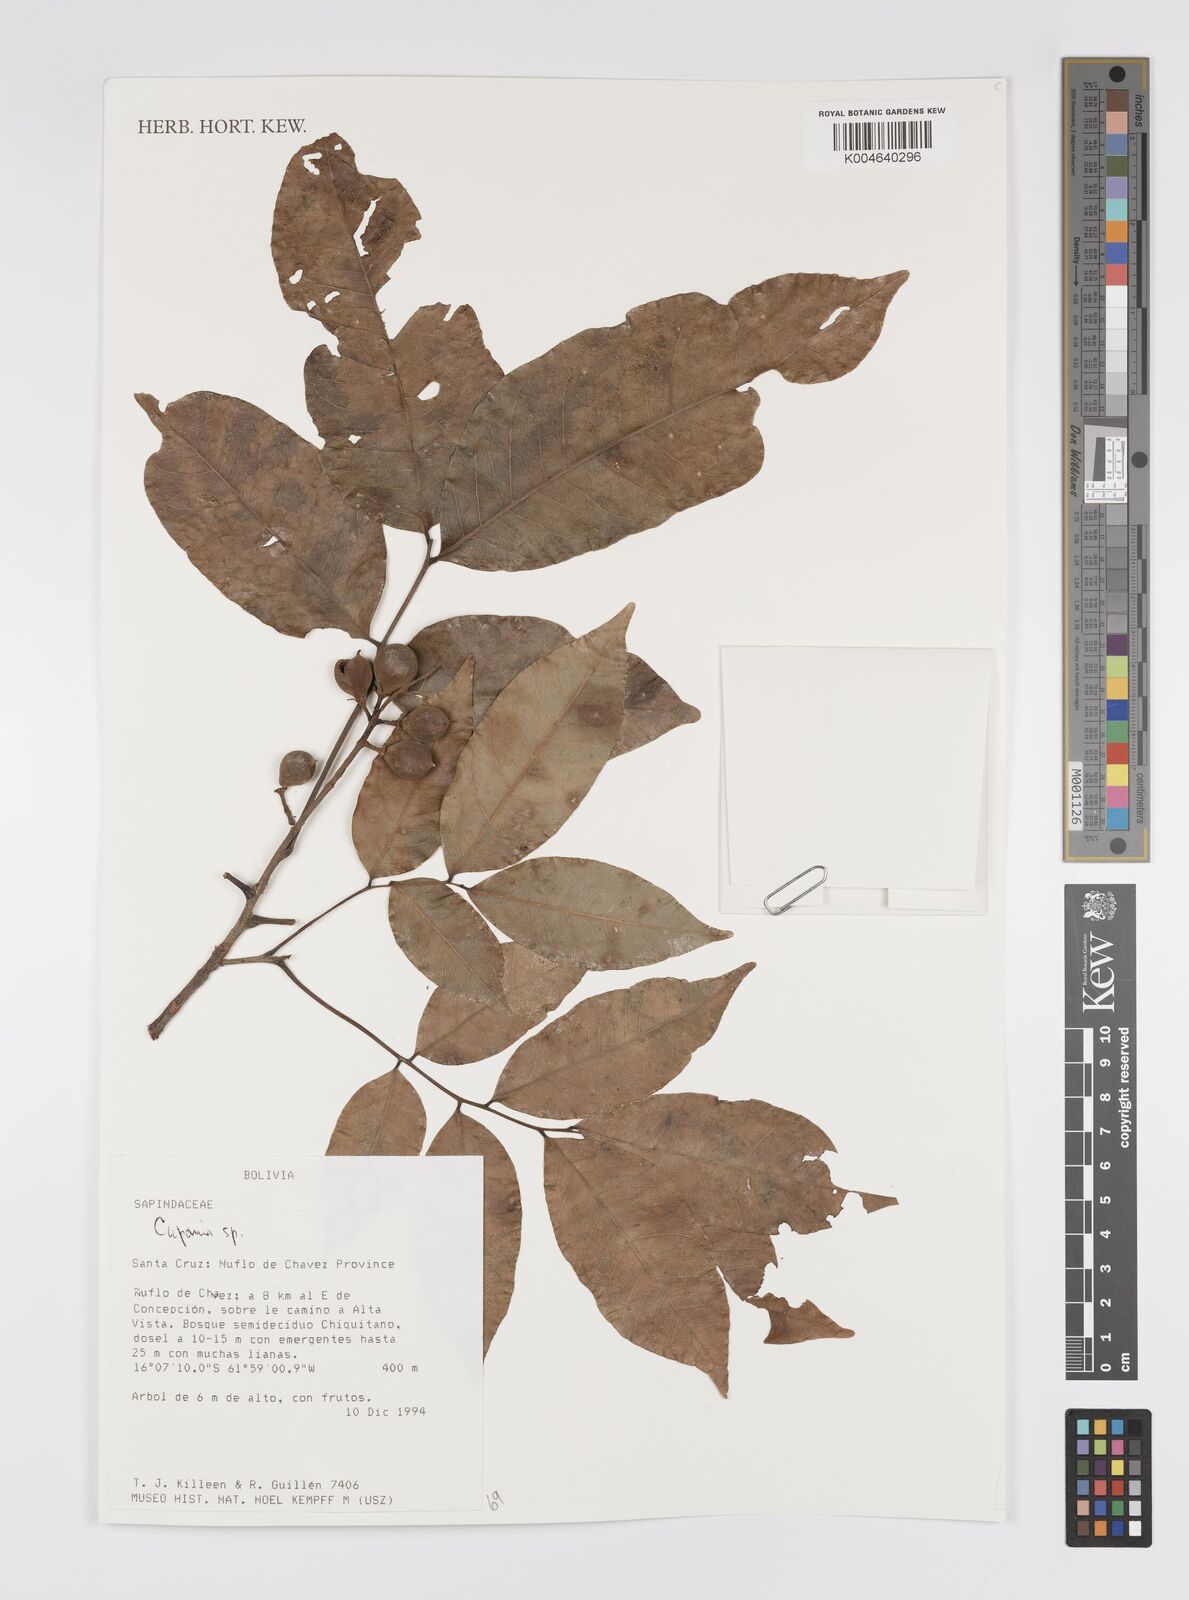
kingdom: Plantae
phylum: Tracheophyta
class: Magnoliopsida
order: Sapindales
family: Sapindaceae
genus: Cupania
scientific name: Cupania
